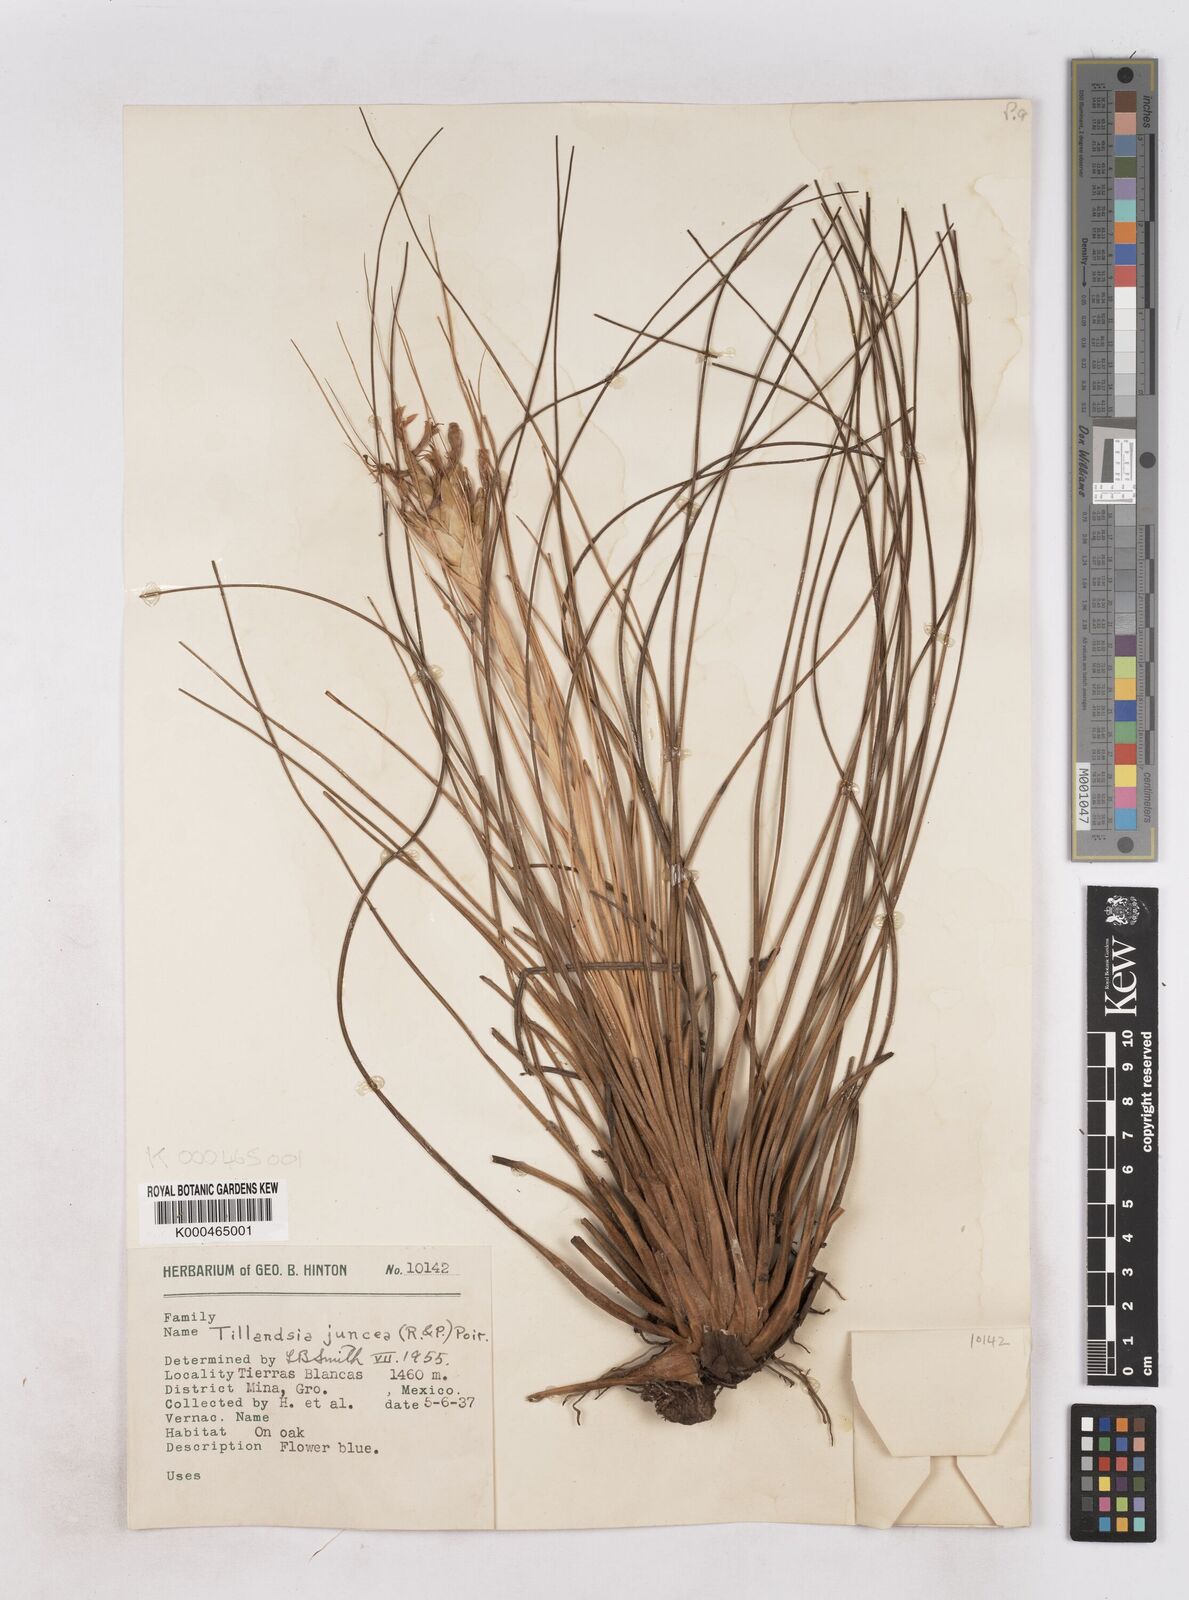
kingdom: Plantae
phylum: Tracheophyta
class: Liliopsida
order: Poales
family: Bromeliaceae
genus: Tillandsia
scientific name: Tillandsia juncea
